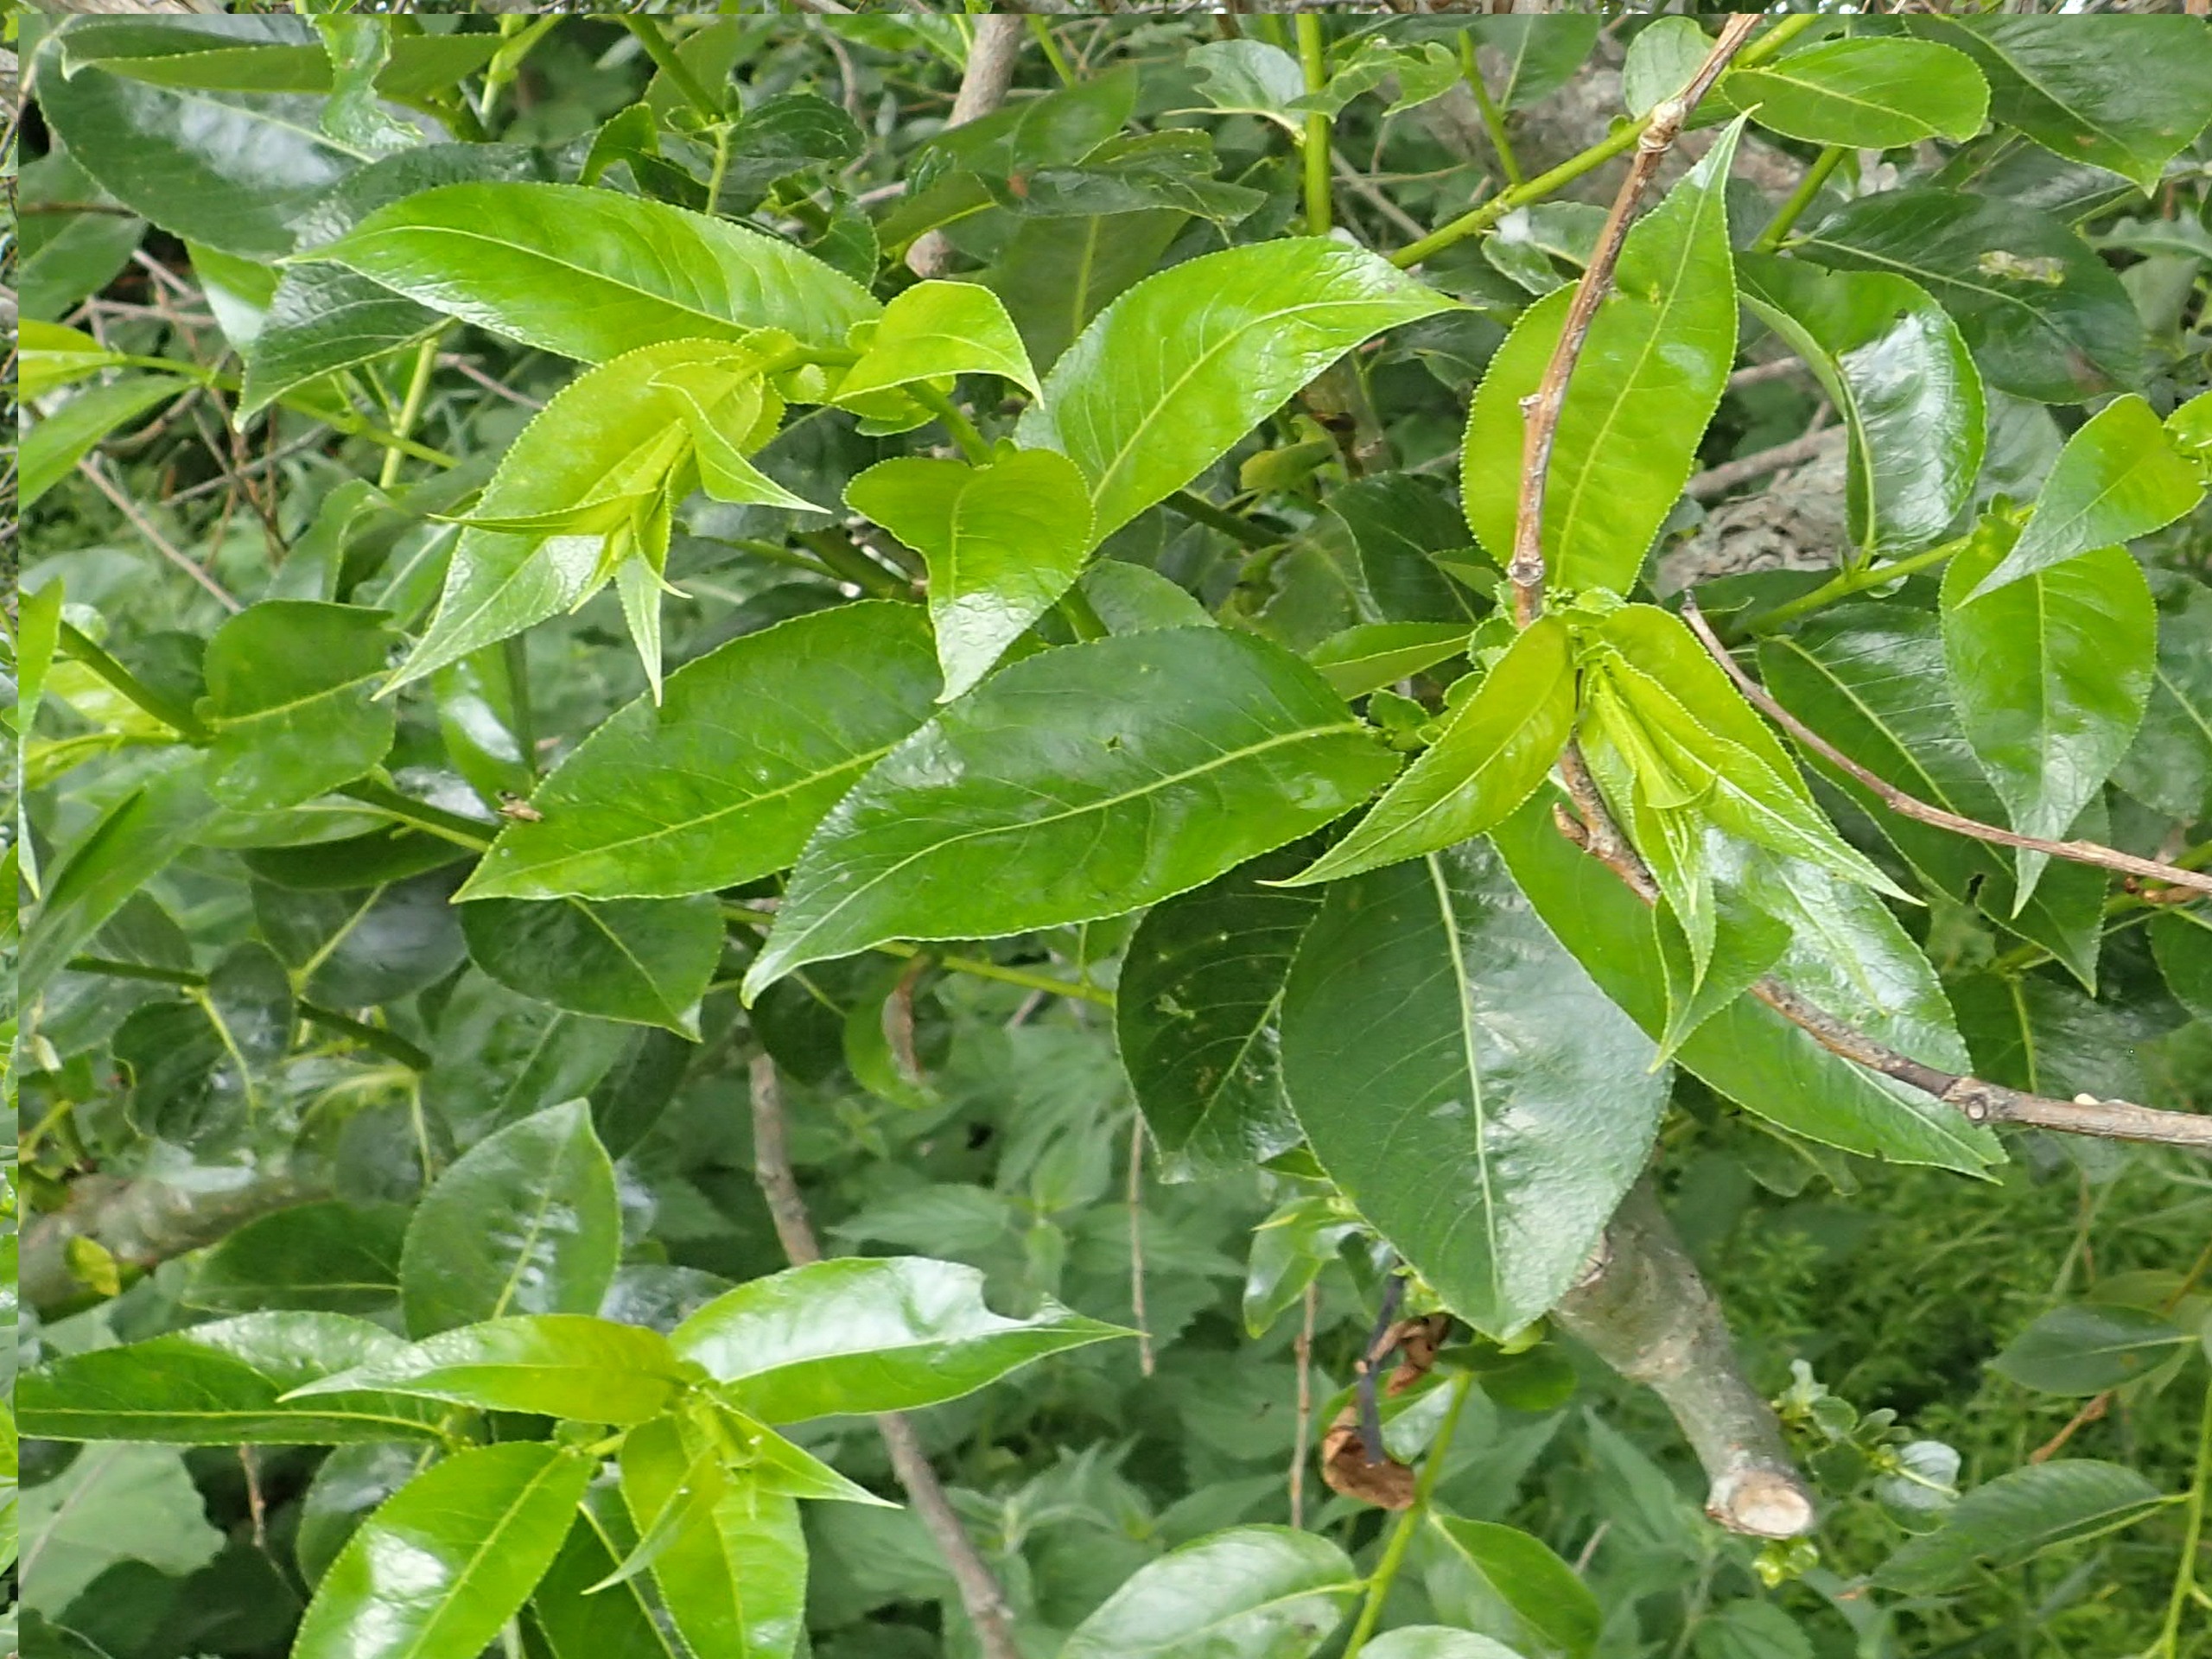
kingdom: Plantae
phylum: Tracheophyta
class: Magnoliopsida
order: Malpighiales
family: Salicaceae
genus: Salix
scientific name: Salix pentandra
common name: Femhannet pil
